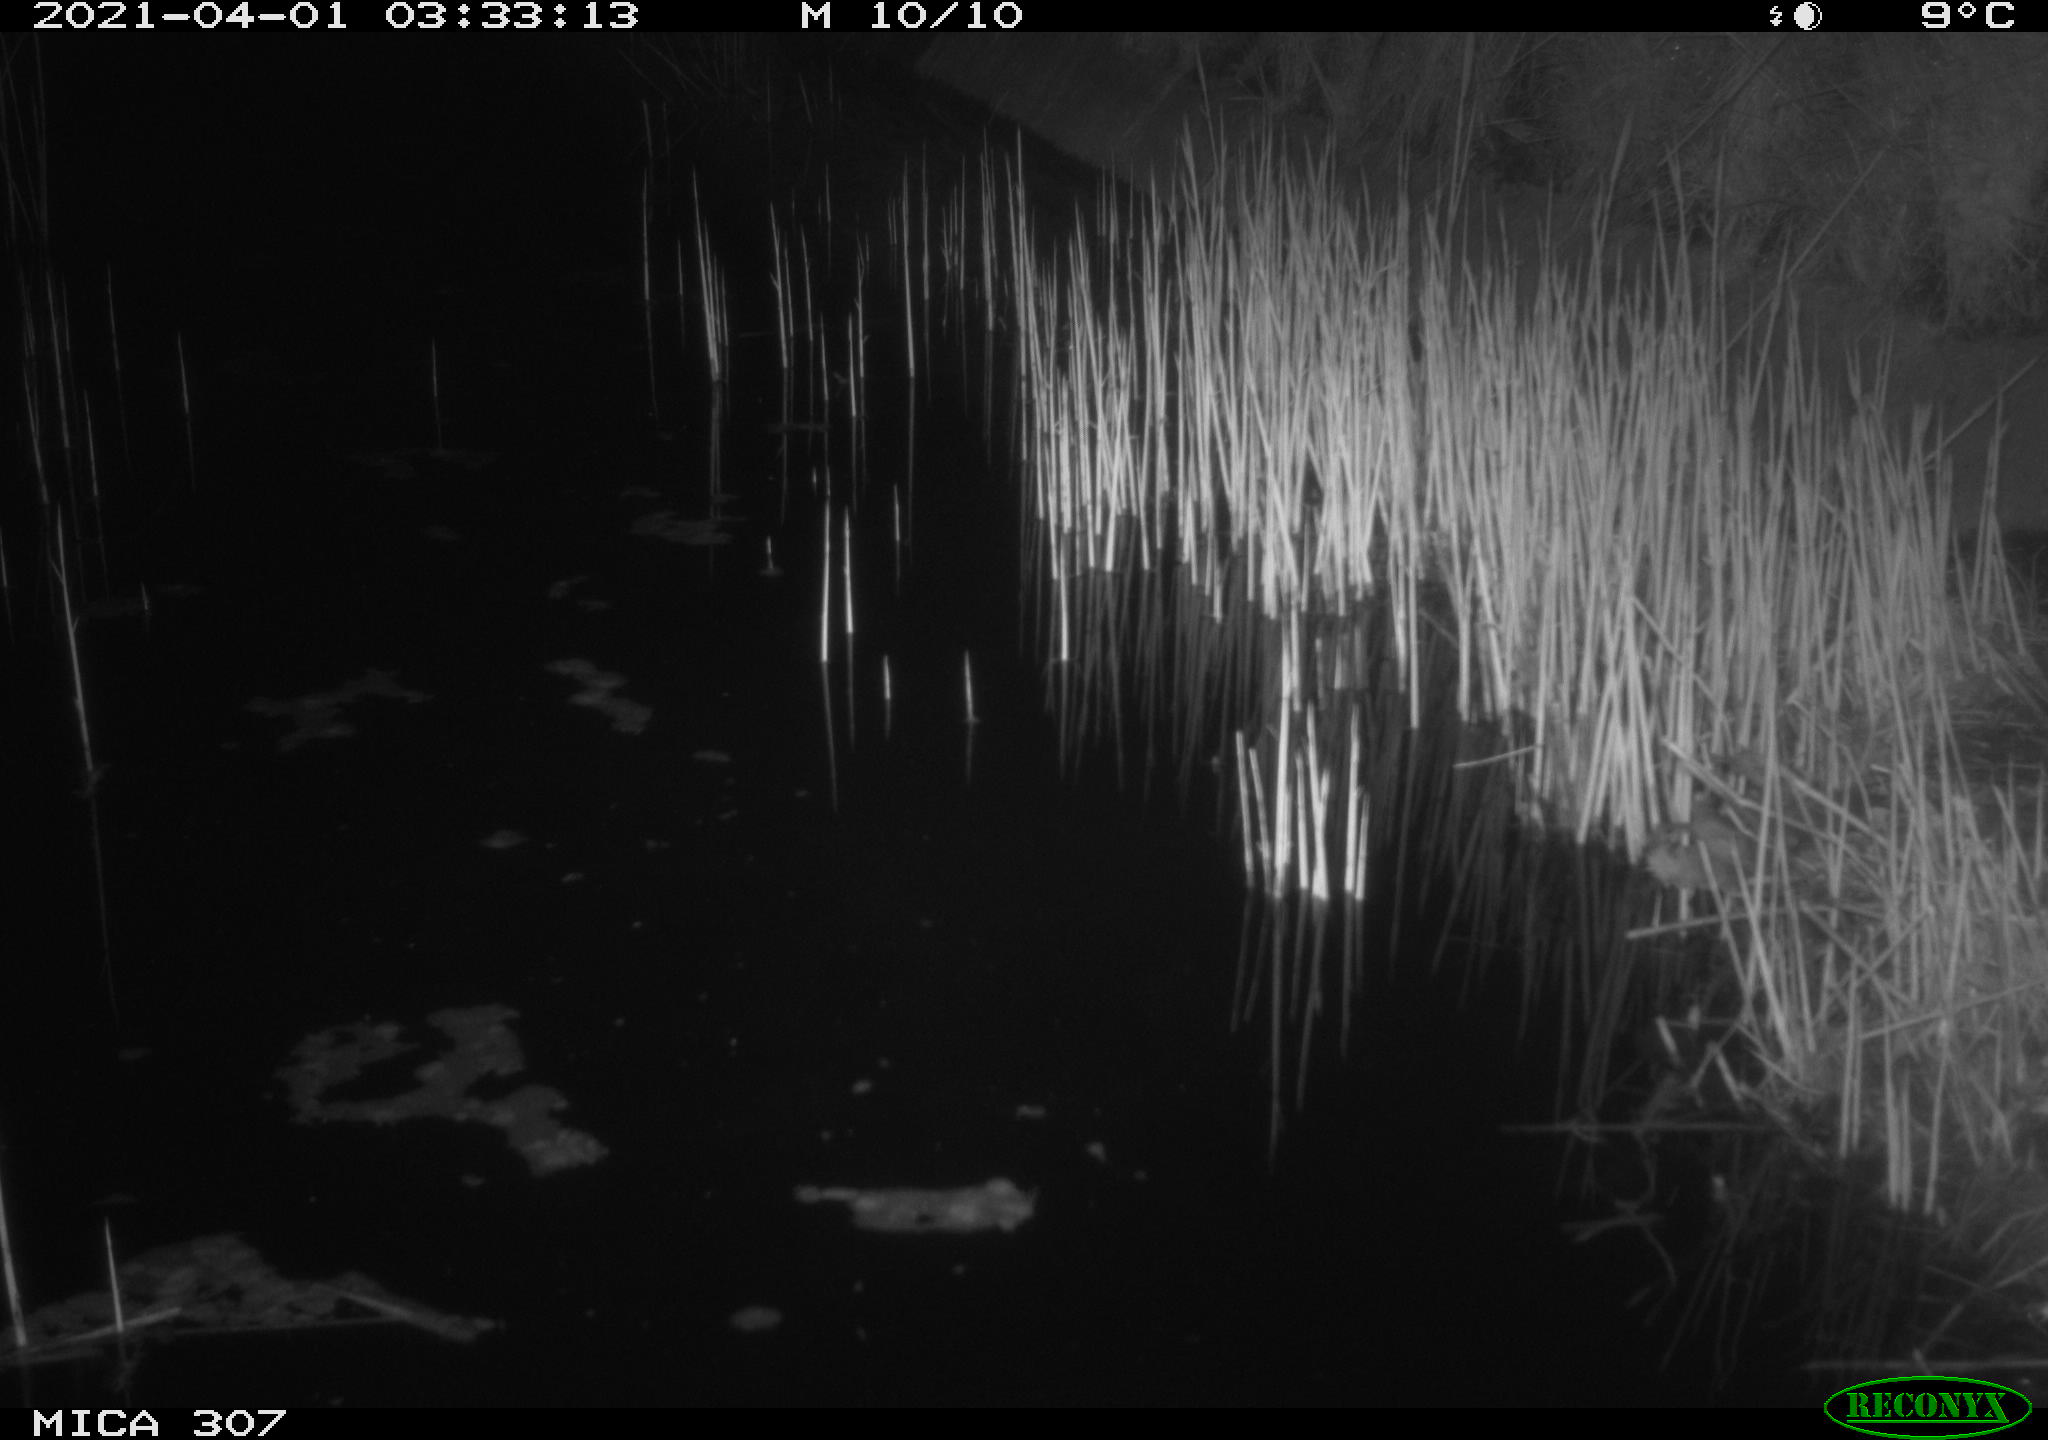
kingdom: Animalia
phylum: Chordata
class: Mammalia
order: Rodentia
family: Muridae
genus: Rattus
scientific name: Rattus norvegicus
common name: Brown rat
